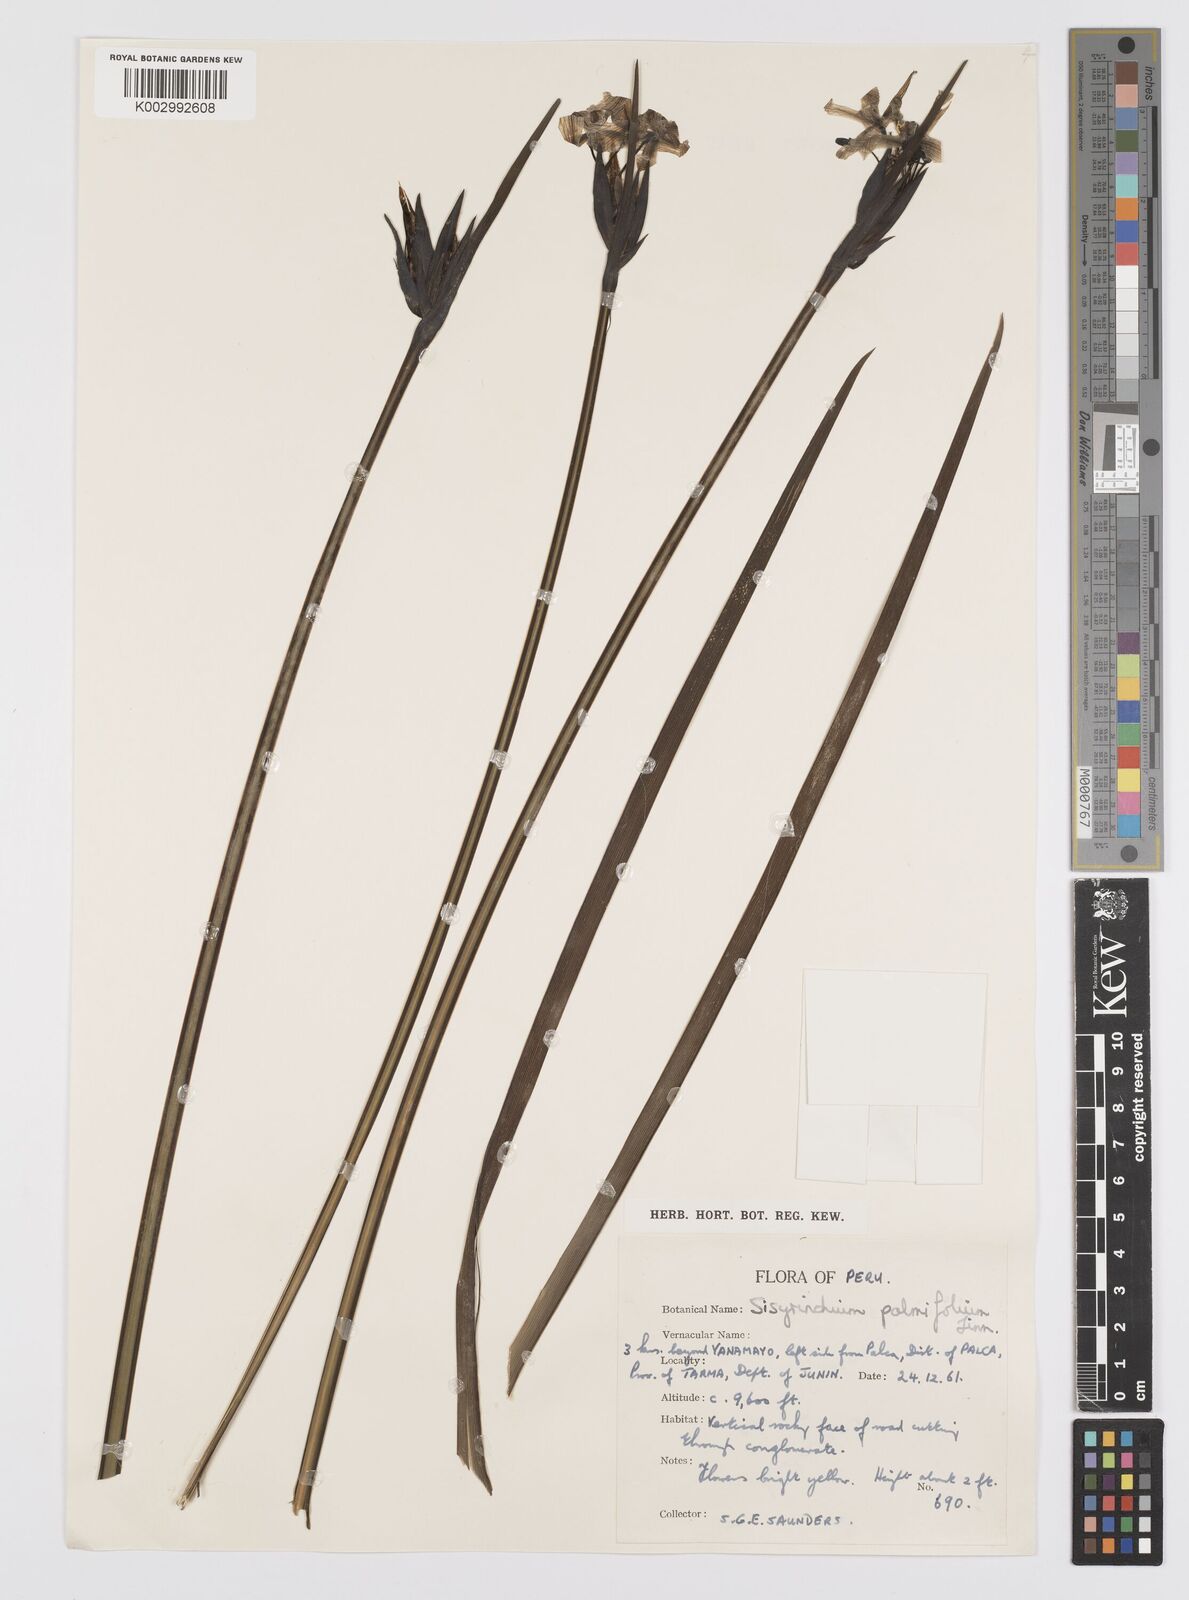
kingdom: Plantae
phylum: Tracheophyta
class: Liliopsida
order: Asparagales
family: Iridaceae
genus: Sisyrinchium
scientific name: Sisyrinchium palmifolium
